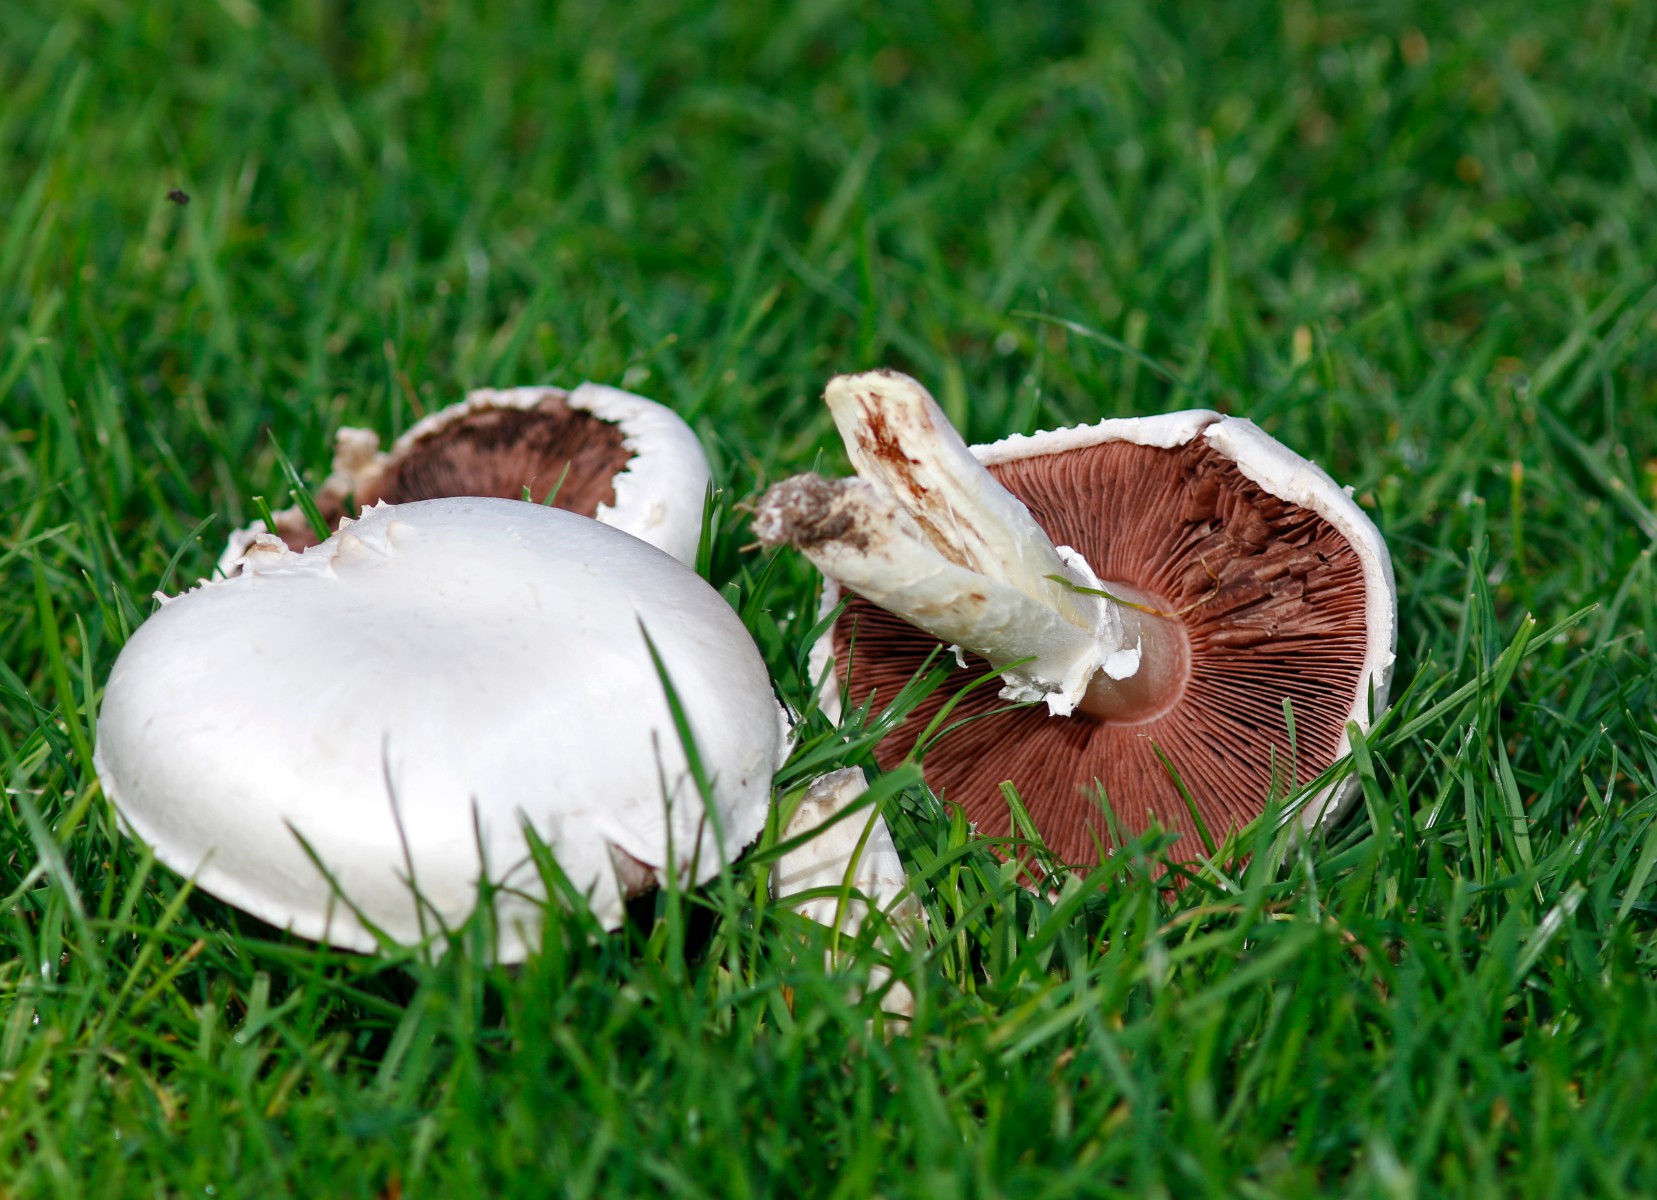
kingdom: Fungi
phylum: Basidiomycota
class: Agaricomycetes
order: Agaricales
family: Agaricaceae
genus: Agaricus
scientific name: Agaricus campestris
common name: mark-champignon
